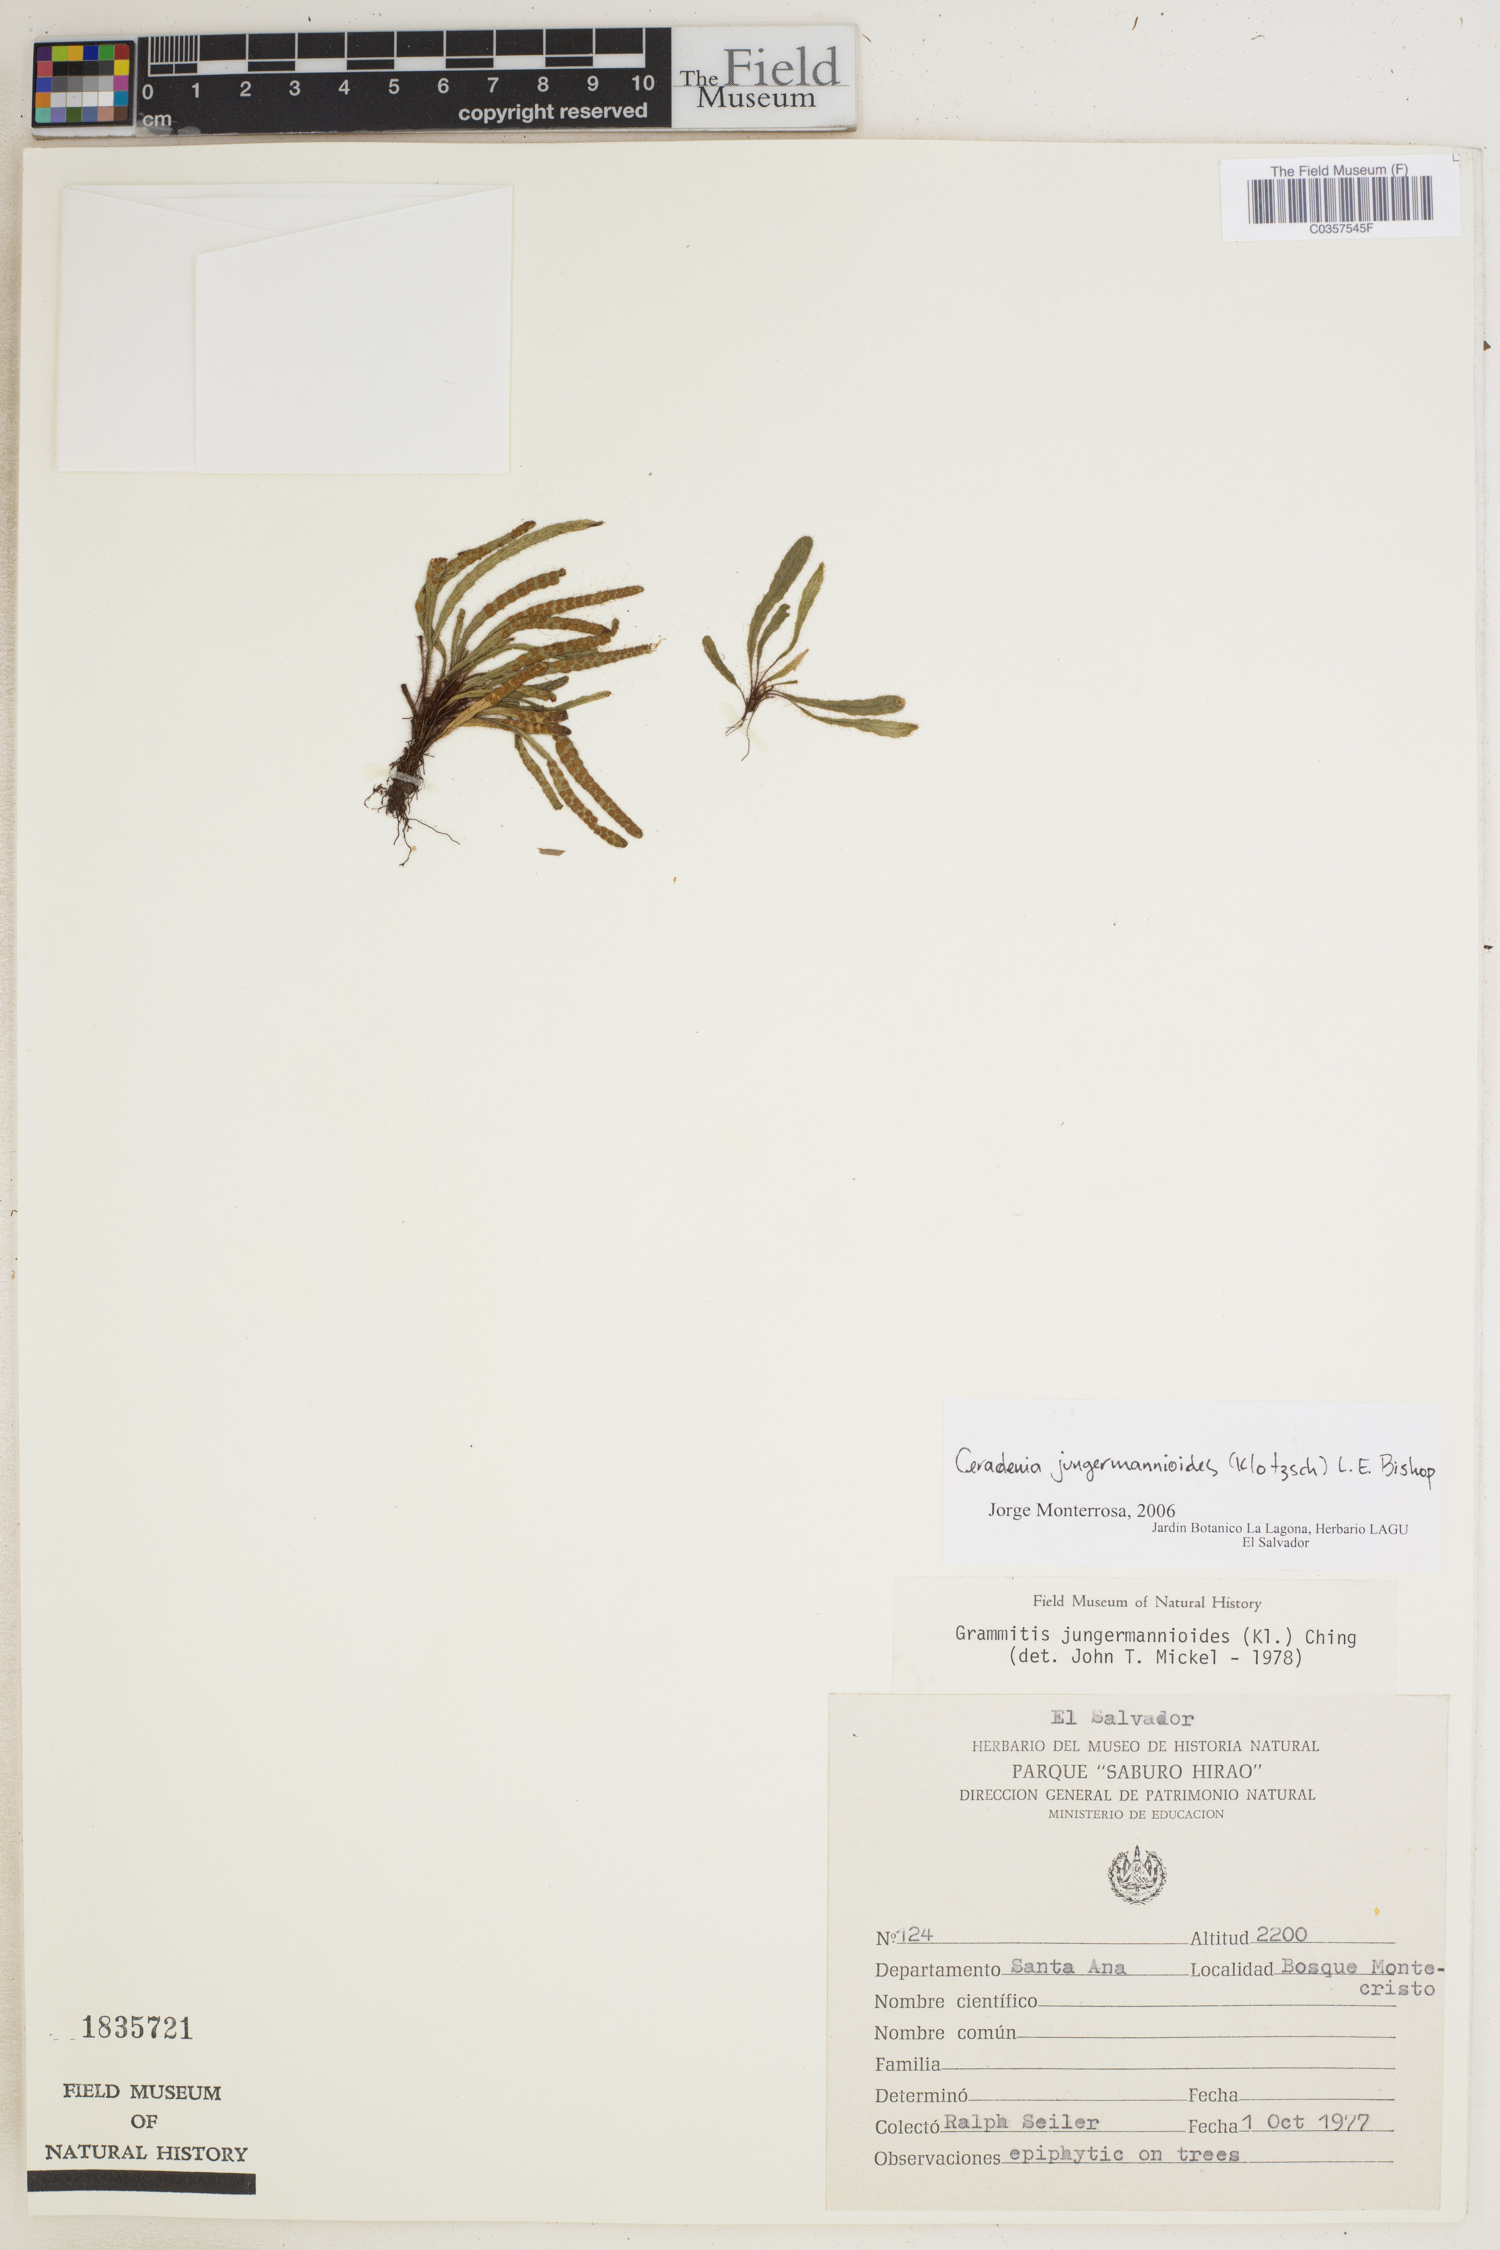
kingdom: Plantae
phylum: Tracheophyta
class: Polypodiopsida
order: Polypodiales
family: Polypodiaceae
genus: Ceradenia
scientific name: Ceradenia jungermannioides
